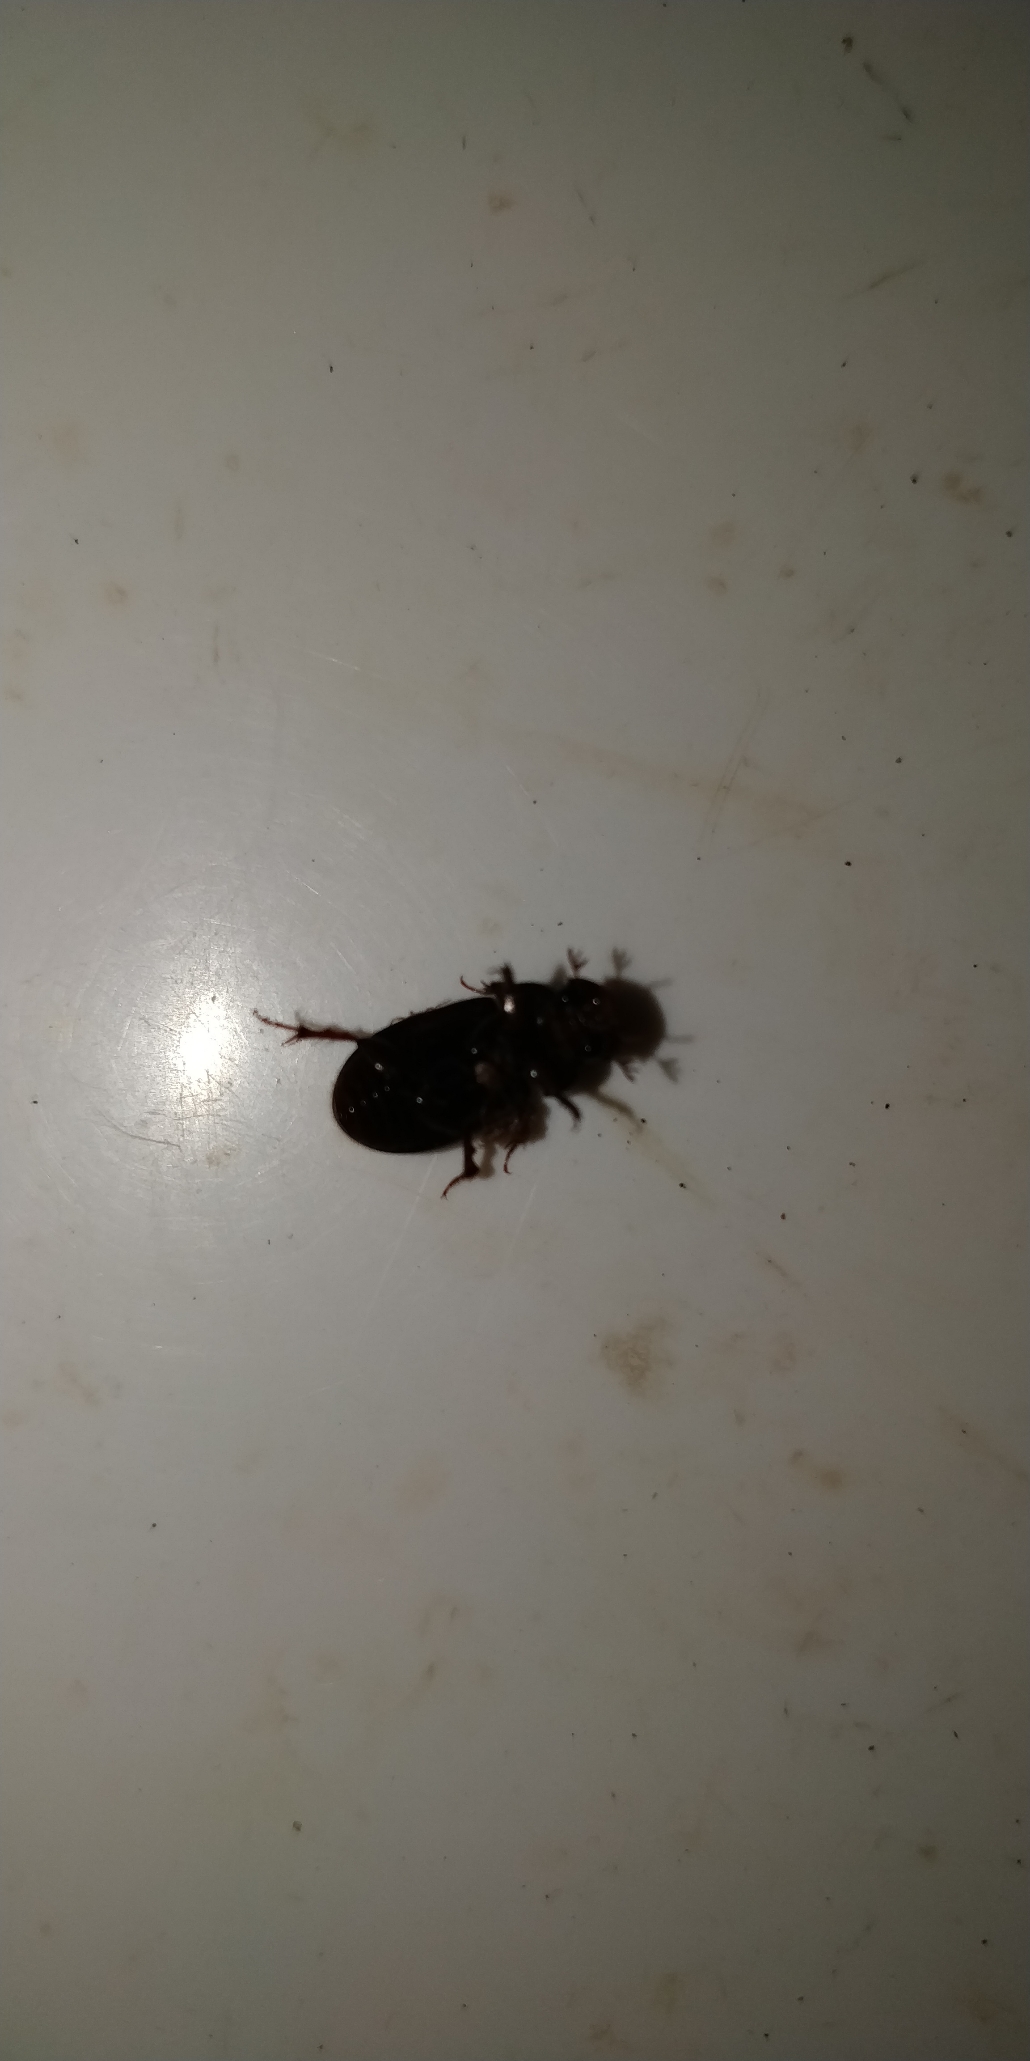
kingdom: Animalia
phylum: Arthropoda
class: Insecta
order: Coleoptera
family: Scarabaeidae
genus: Acrossus
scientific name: Acrossus rufipes
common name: Rødbenet møgbille
